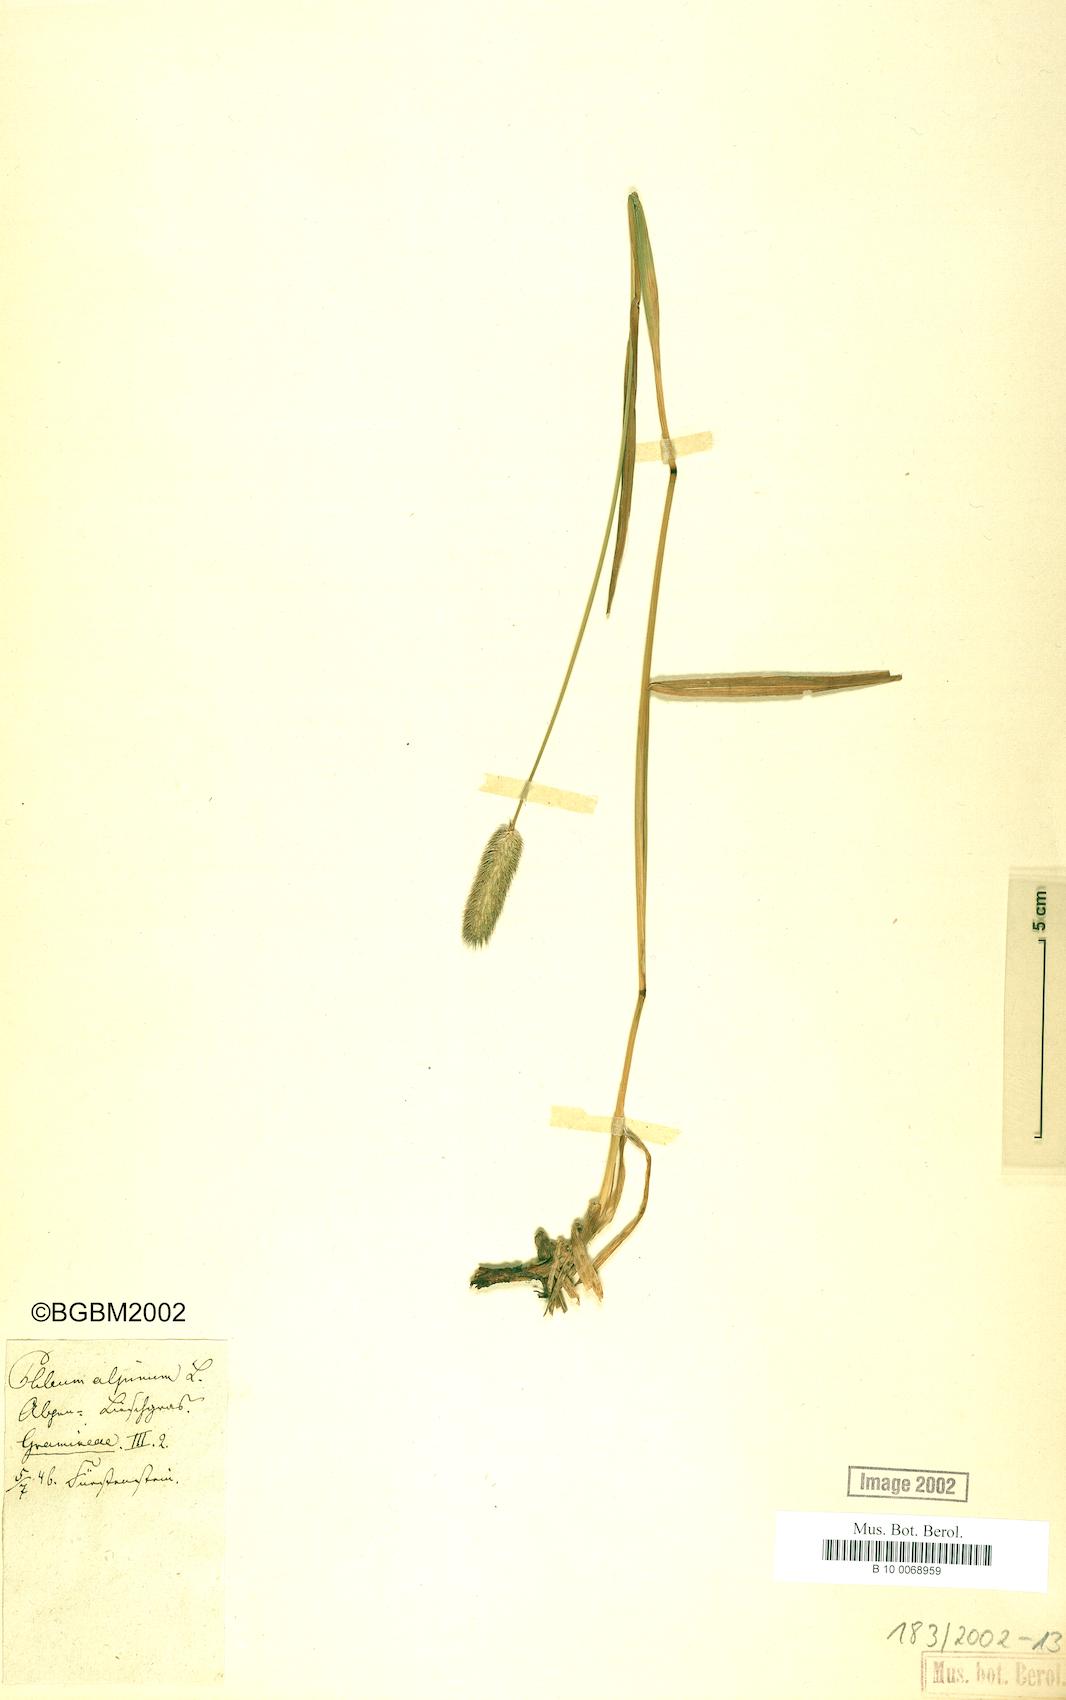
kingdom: Plantae
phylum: Tracheophyta
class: Liliopsida
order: Poales
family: Poaceae
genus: Phleum
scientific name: Phleum alpinum
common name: Alpine cat's-tail
